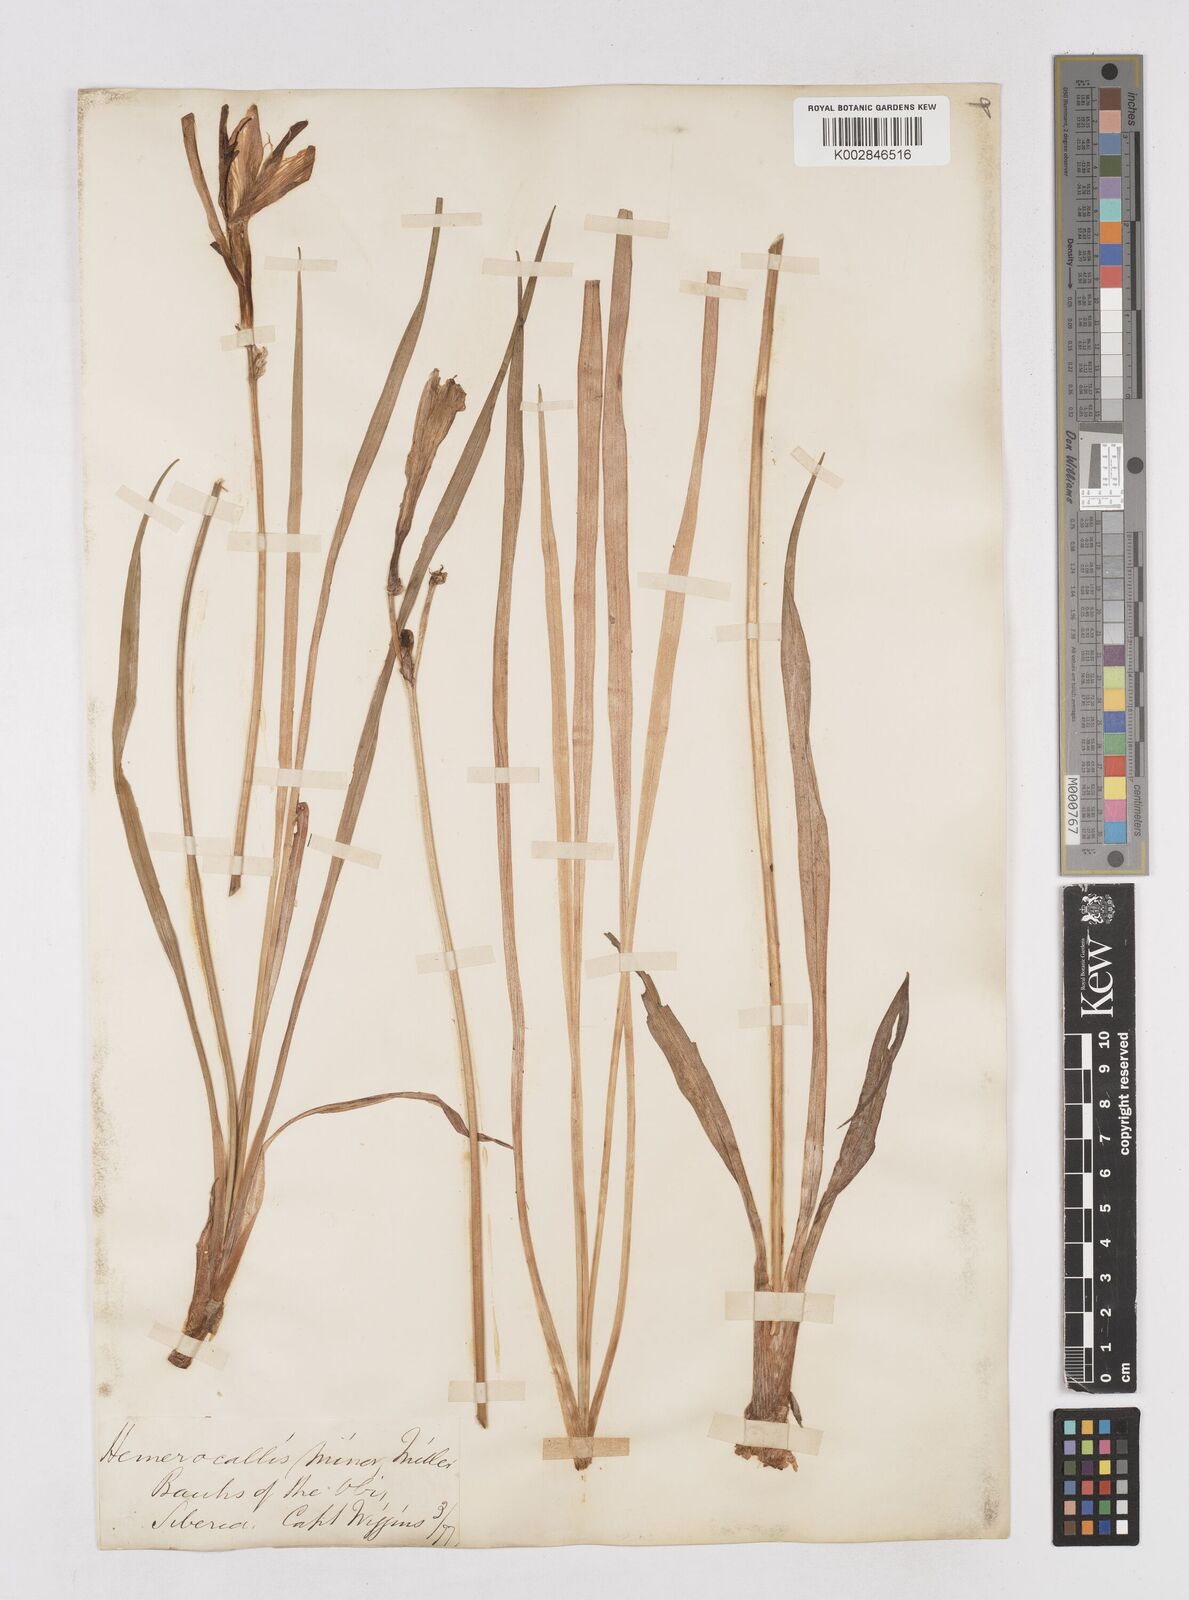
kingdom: Plantae
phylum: Tracheophyta
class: Liliopsida
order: Asparagales
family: Asphodelaceae
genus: Hemerocallis
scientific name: Hemerocallis minor
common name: Small daylily
